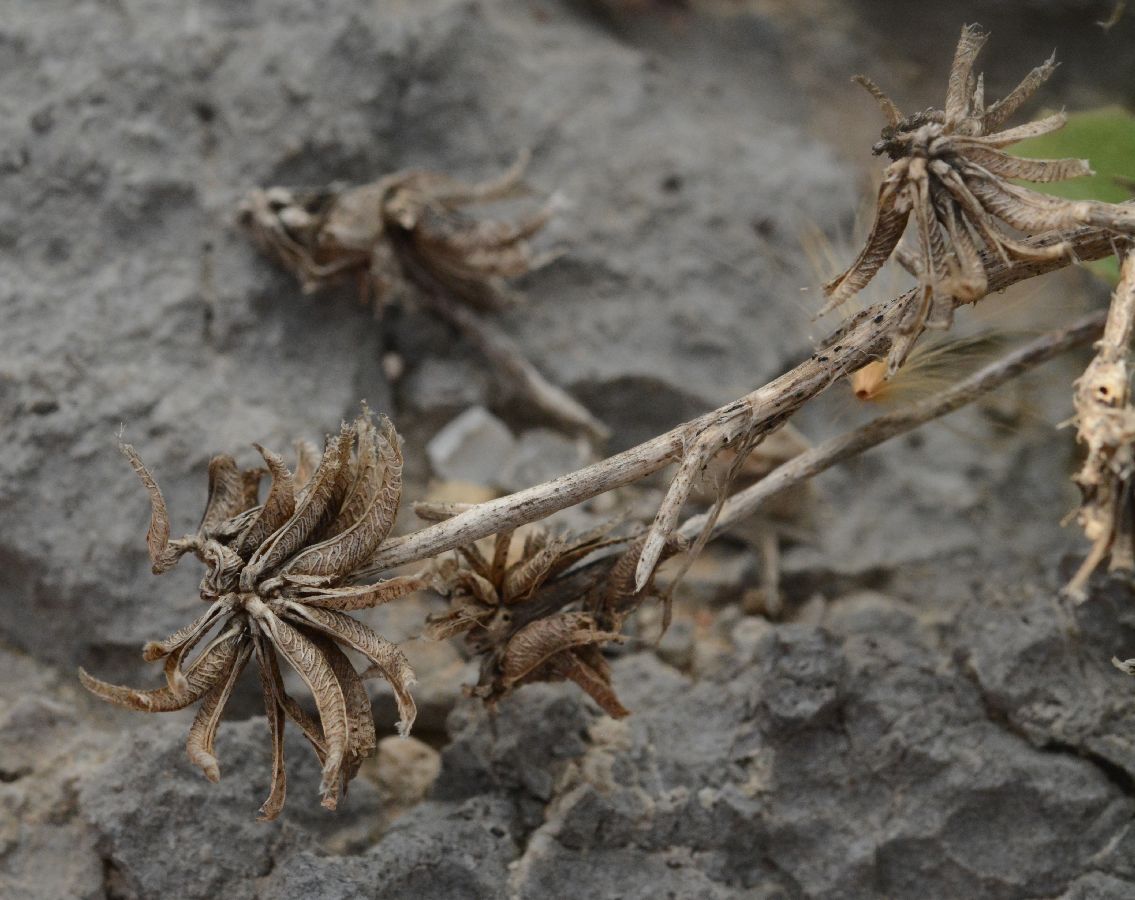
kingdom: Plantae
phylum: Tracheophyta
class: Magnoliopsida
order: Fabales
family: Fabaceae
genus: Medicago
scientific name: Medicago monspeliaca
